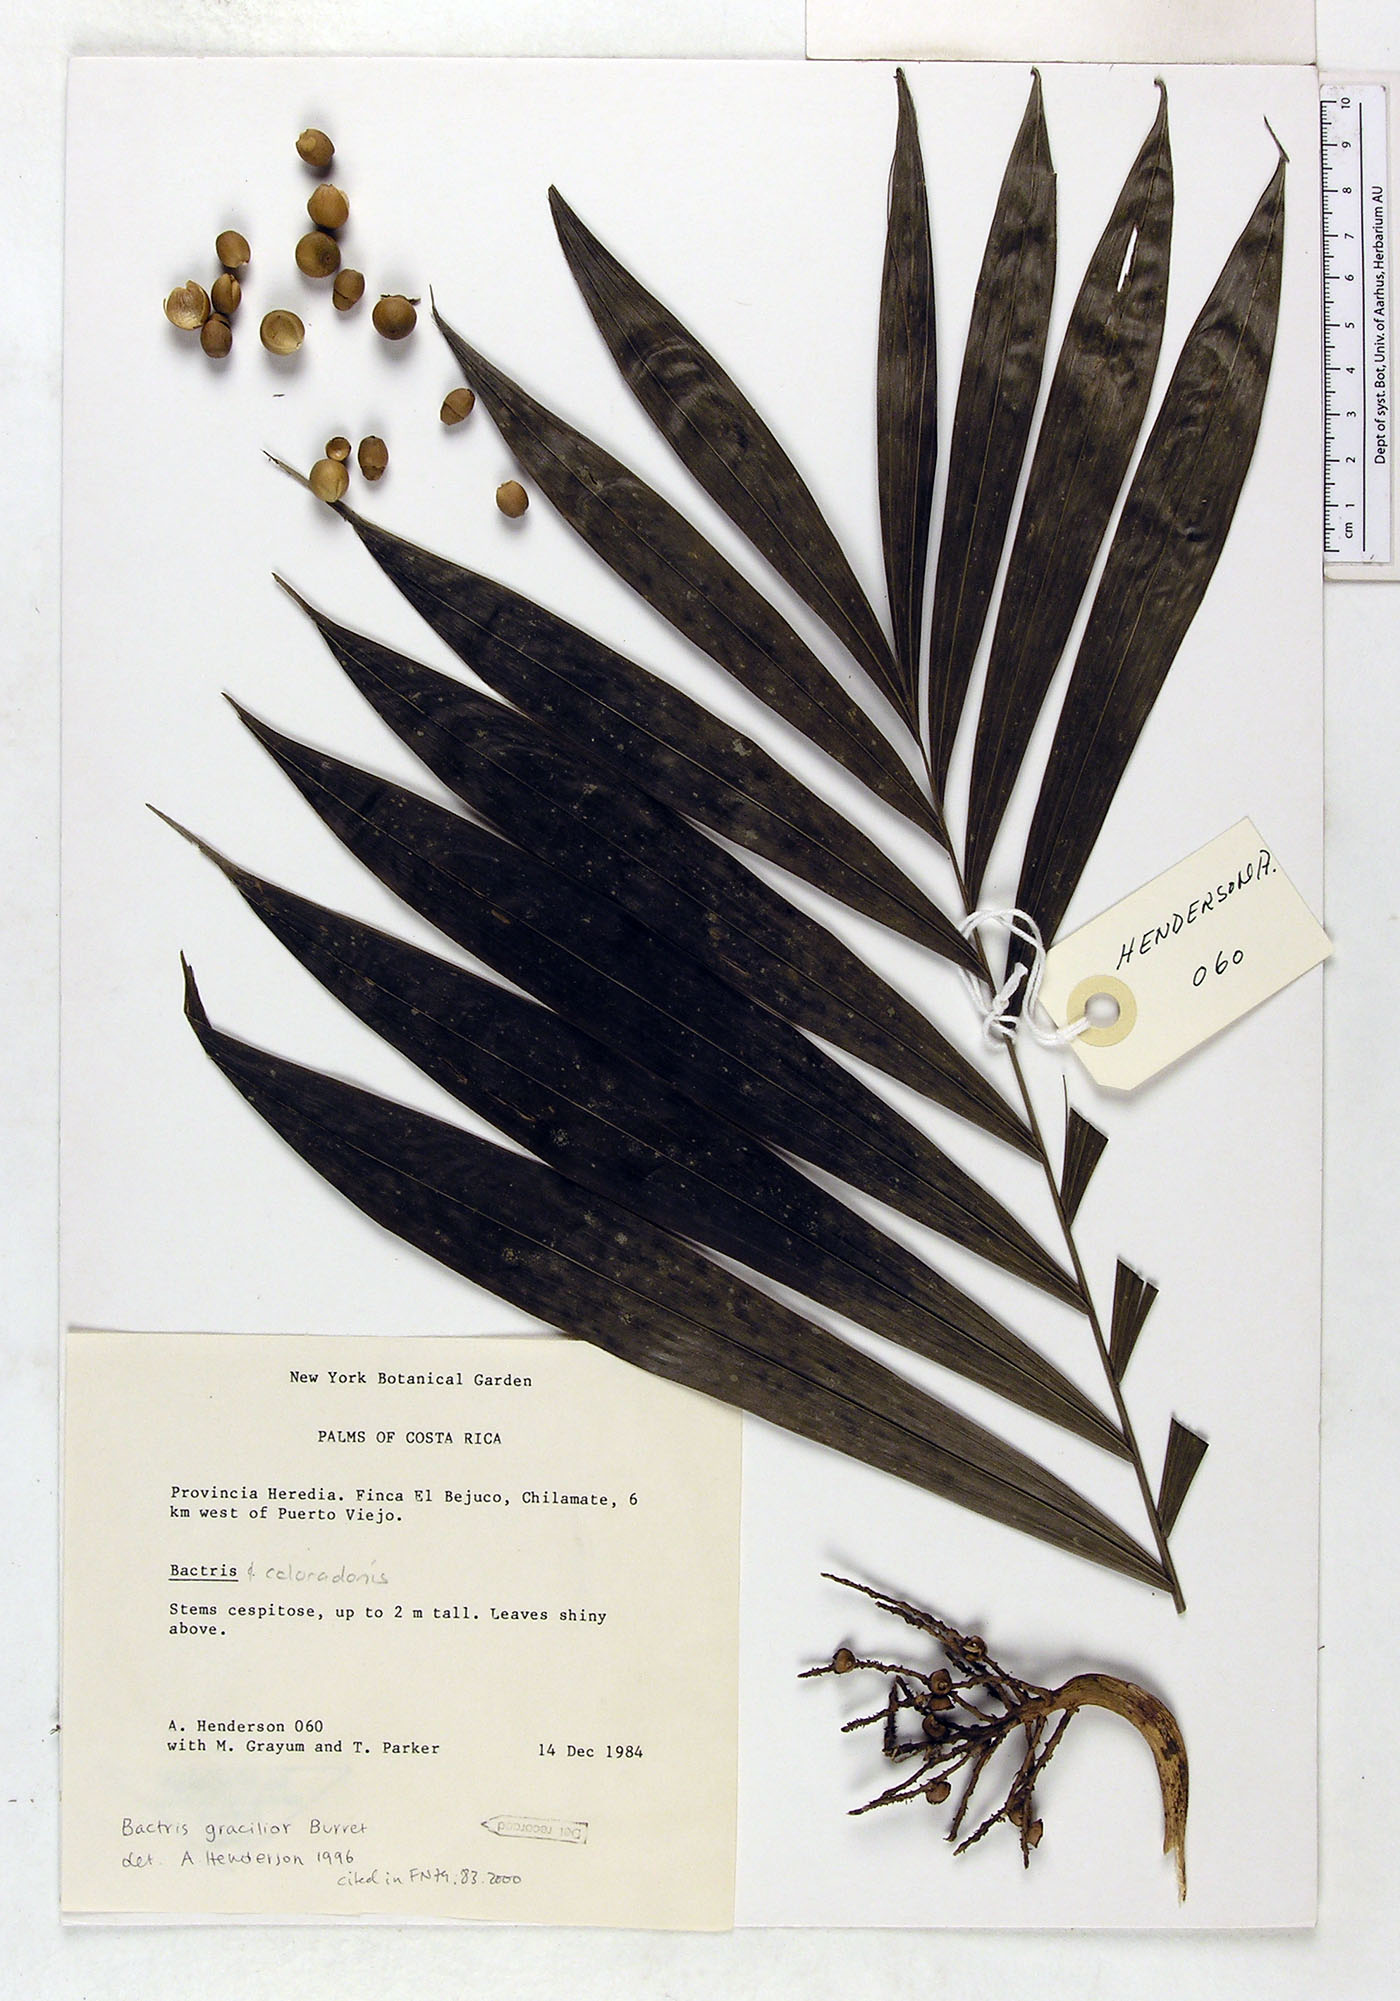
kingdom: Plantae
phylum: Tracheophyta
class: Liliopsida
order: Arecales
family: Arecaceae
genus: Bactris
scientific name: Bactris gracilior
